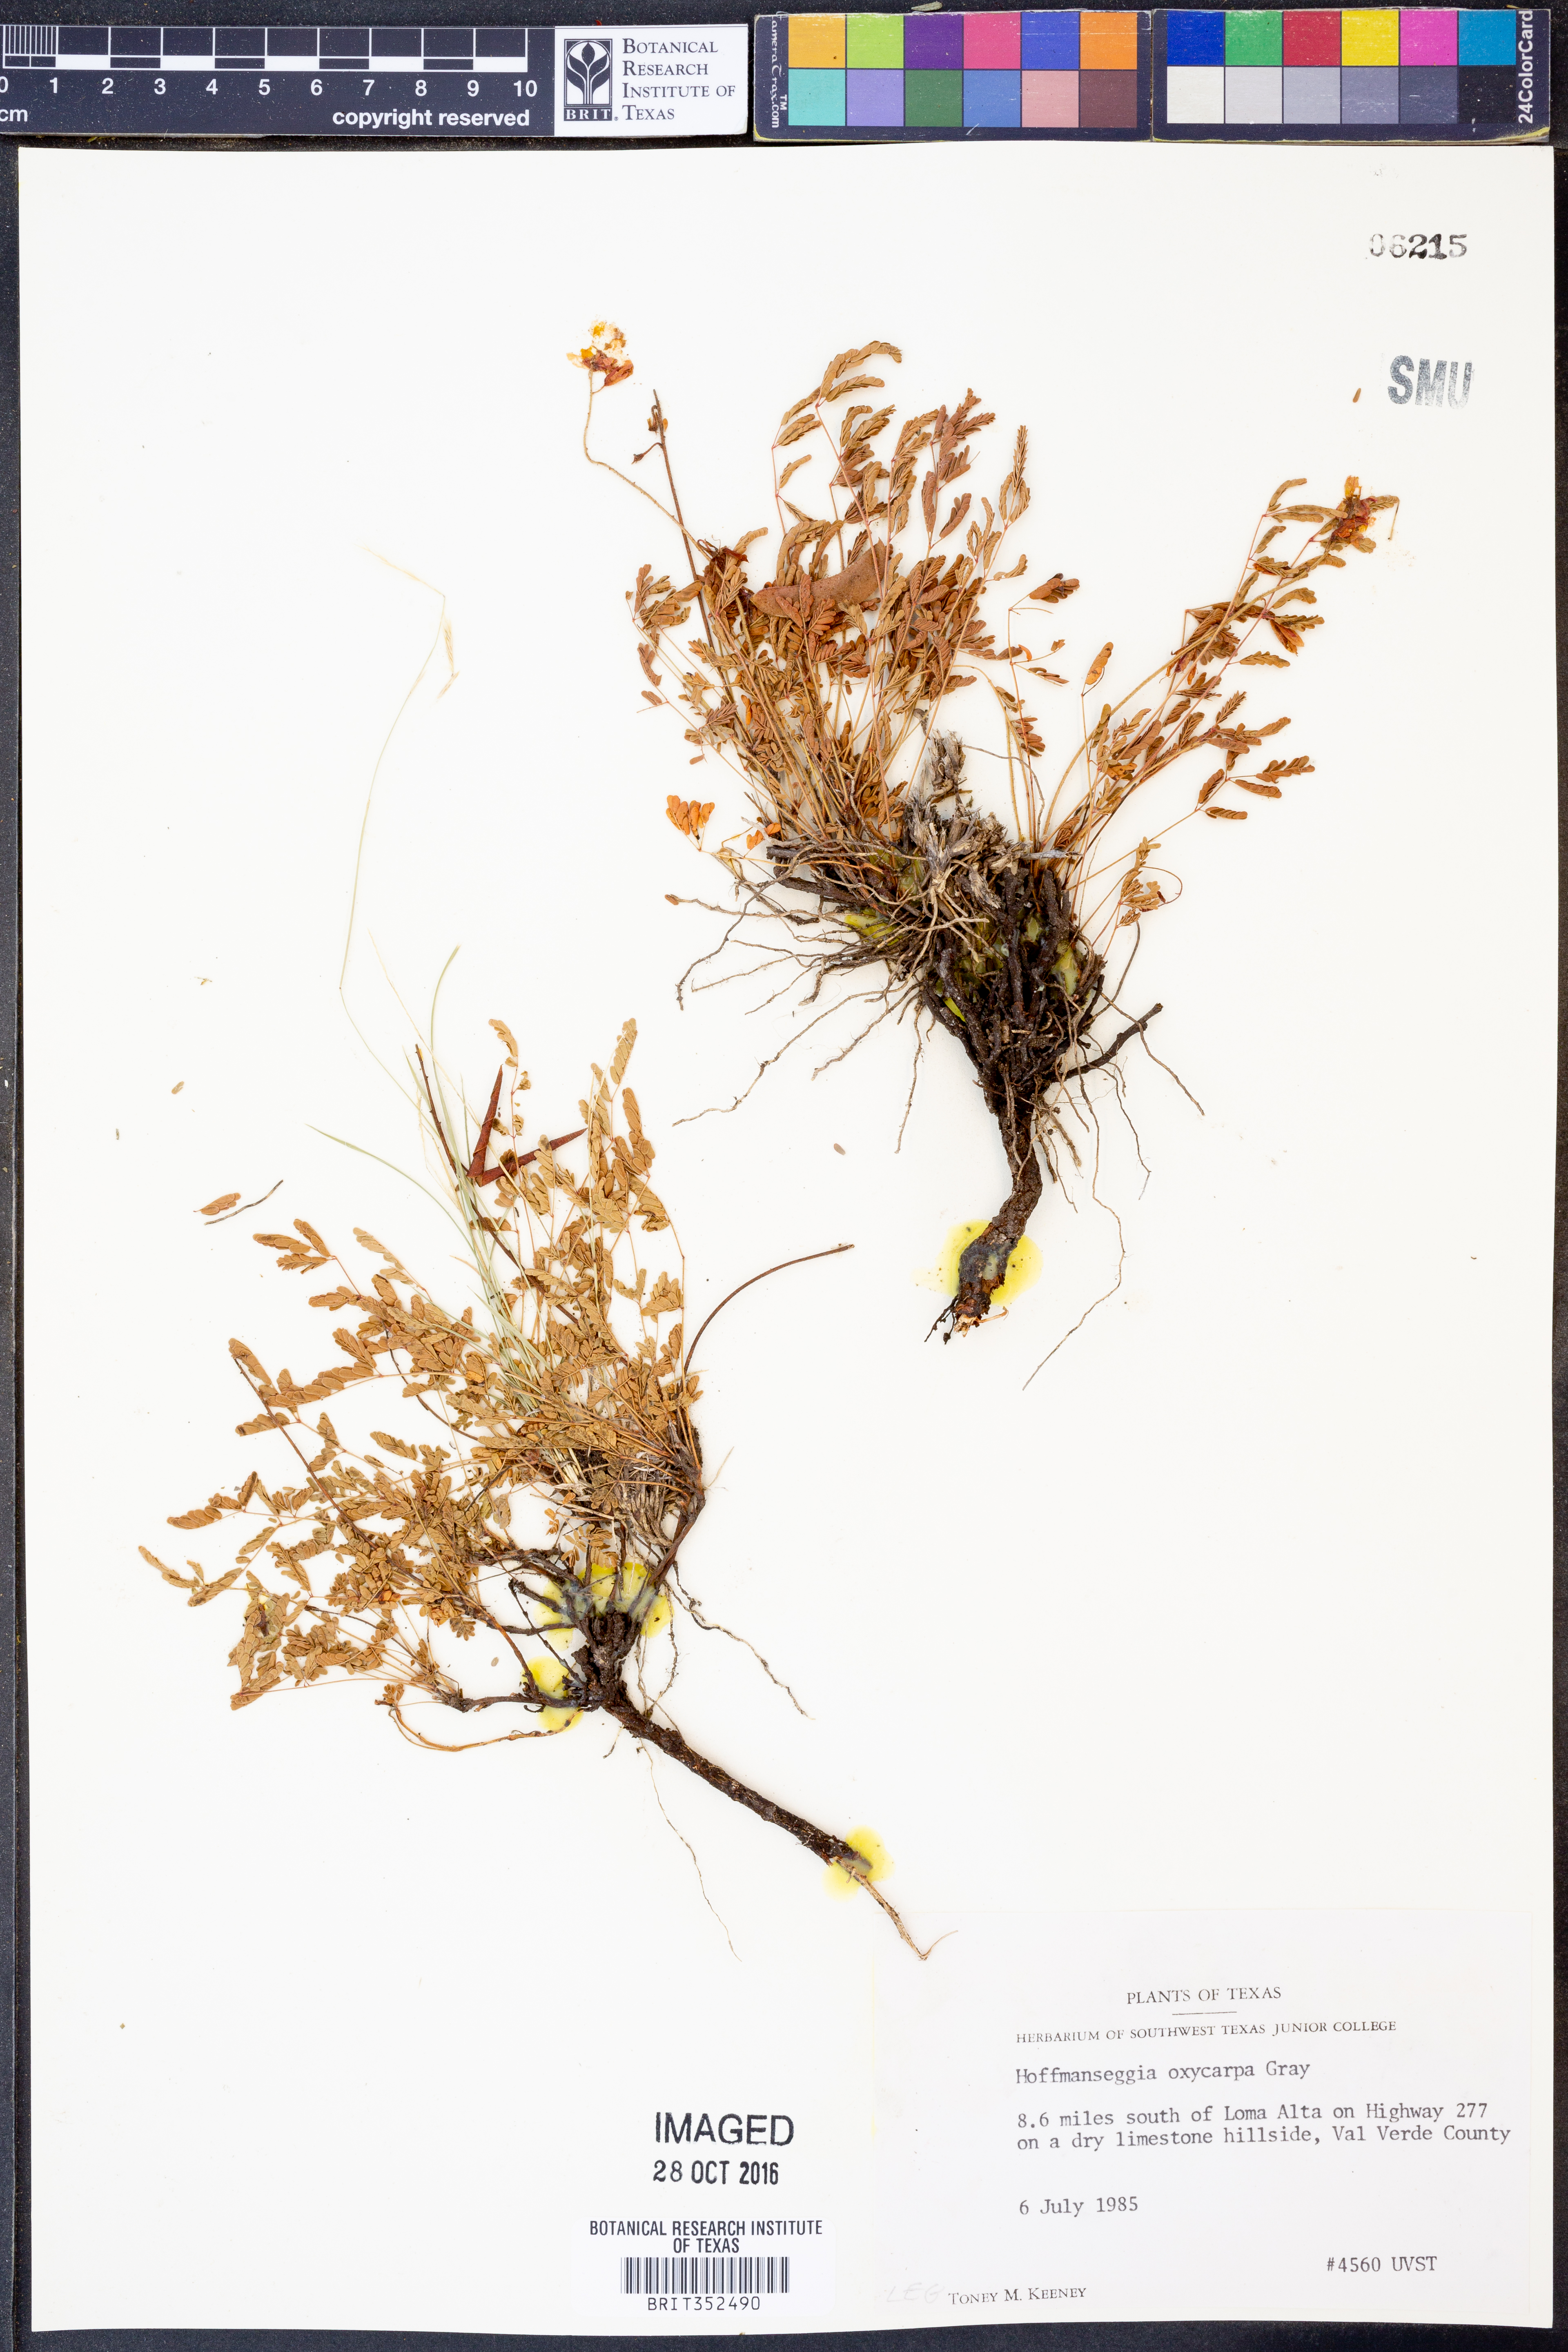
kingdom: Plantae
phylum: Tracheophyta
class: Magnoliopsida
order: Fabales
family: Fabaceae
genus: Hoffmannseggia
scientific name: Hoffmannseggia oxycarpa
